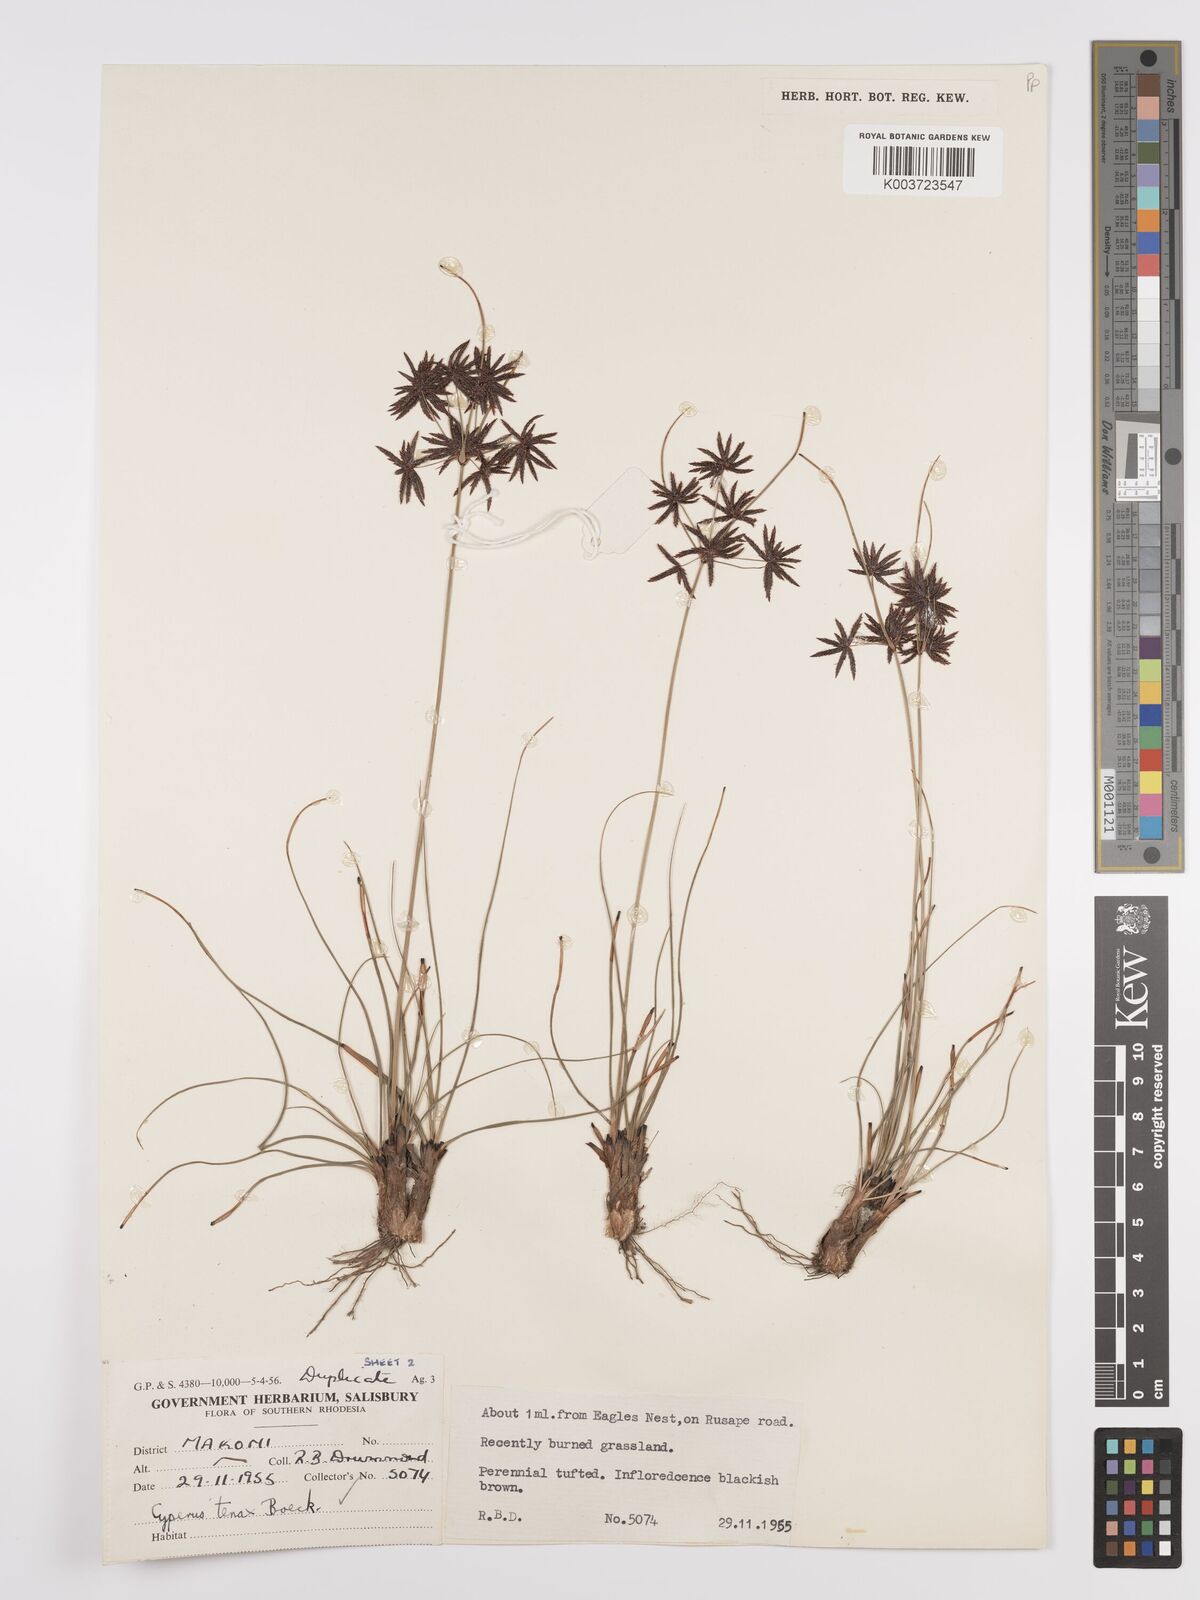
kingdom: Plantae
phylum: Tracheophyta
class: Liliopsida
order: Poales
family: Cyperaceae
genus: Cyperus
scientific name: Cyperus tenax
